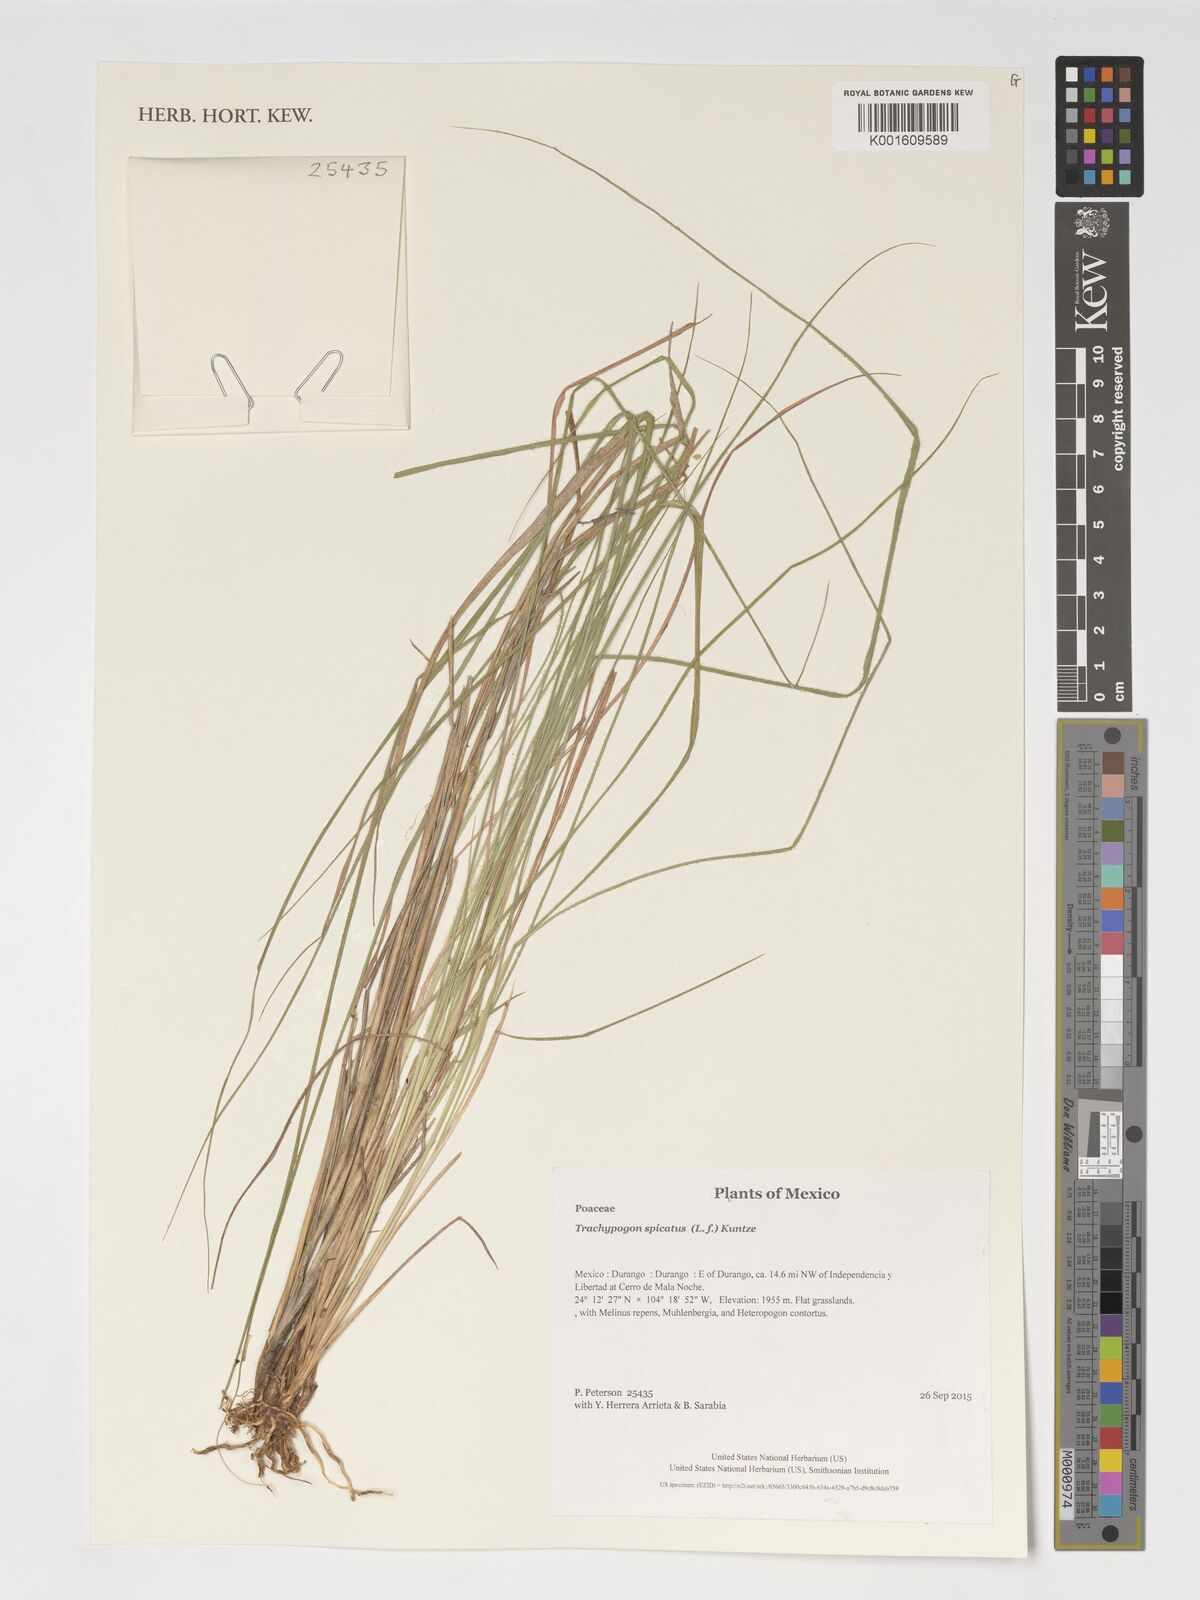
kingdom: Plantae
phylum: Tracheophyta
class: Liliopsida
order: Poales
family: Poaceae
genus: Trachypogon
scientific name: Trachypogon spicatus
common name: Crinkle-awn
